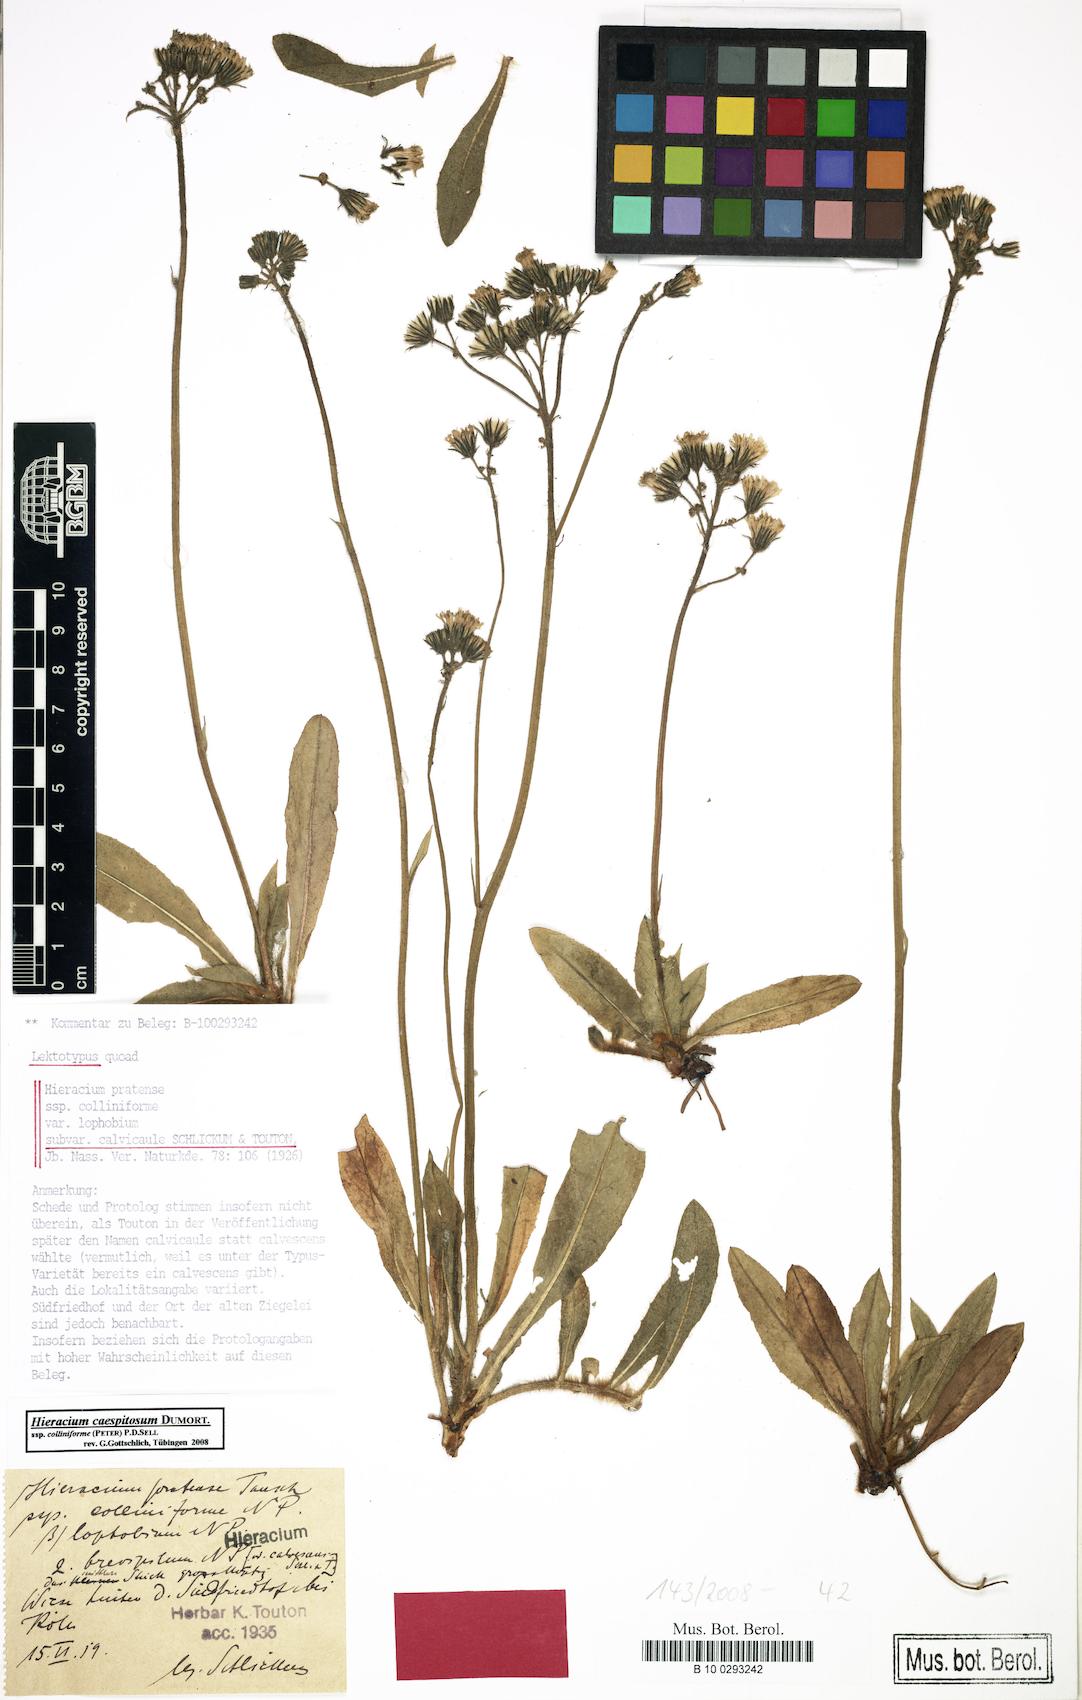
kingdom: Plantae
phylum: Tracheophyta
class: Magnoliopsida
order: Asterales
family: Asteraceae
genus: Pilosella
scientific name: Pilosella caespitosa
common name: Yellow fox-and-cubs
